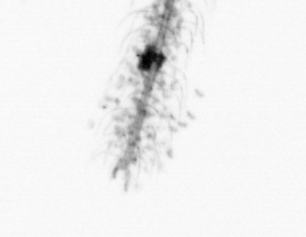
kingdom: Chromista
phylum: Ochrophyta
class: Bacillariophyceae
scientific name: Bacillariophyceae
